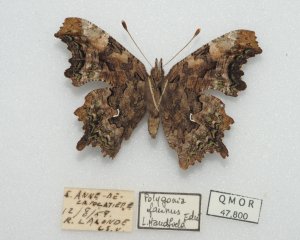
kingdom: Animalia
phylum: Arthropoda
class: Insecta
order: Lepidoptera
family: Nymphalidae
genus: Polygonia
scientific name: Polygonia faunus
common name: Green Comma
